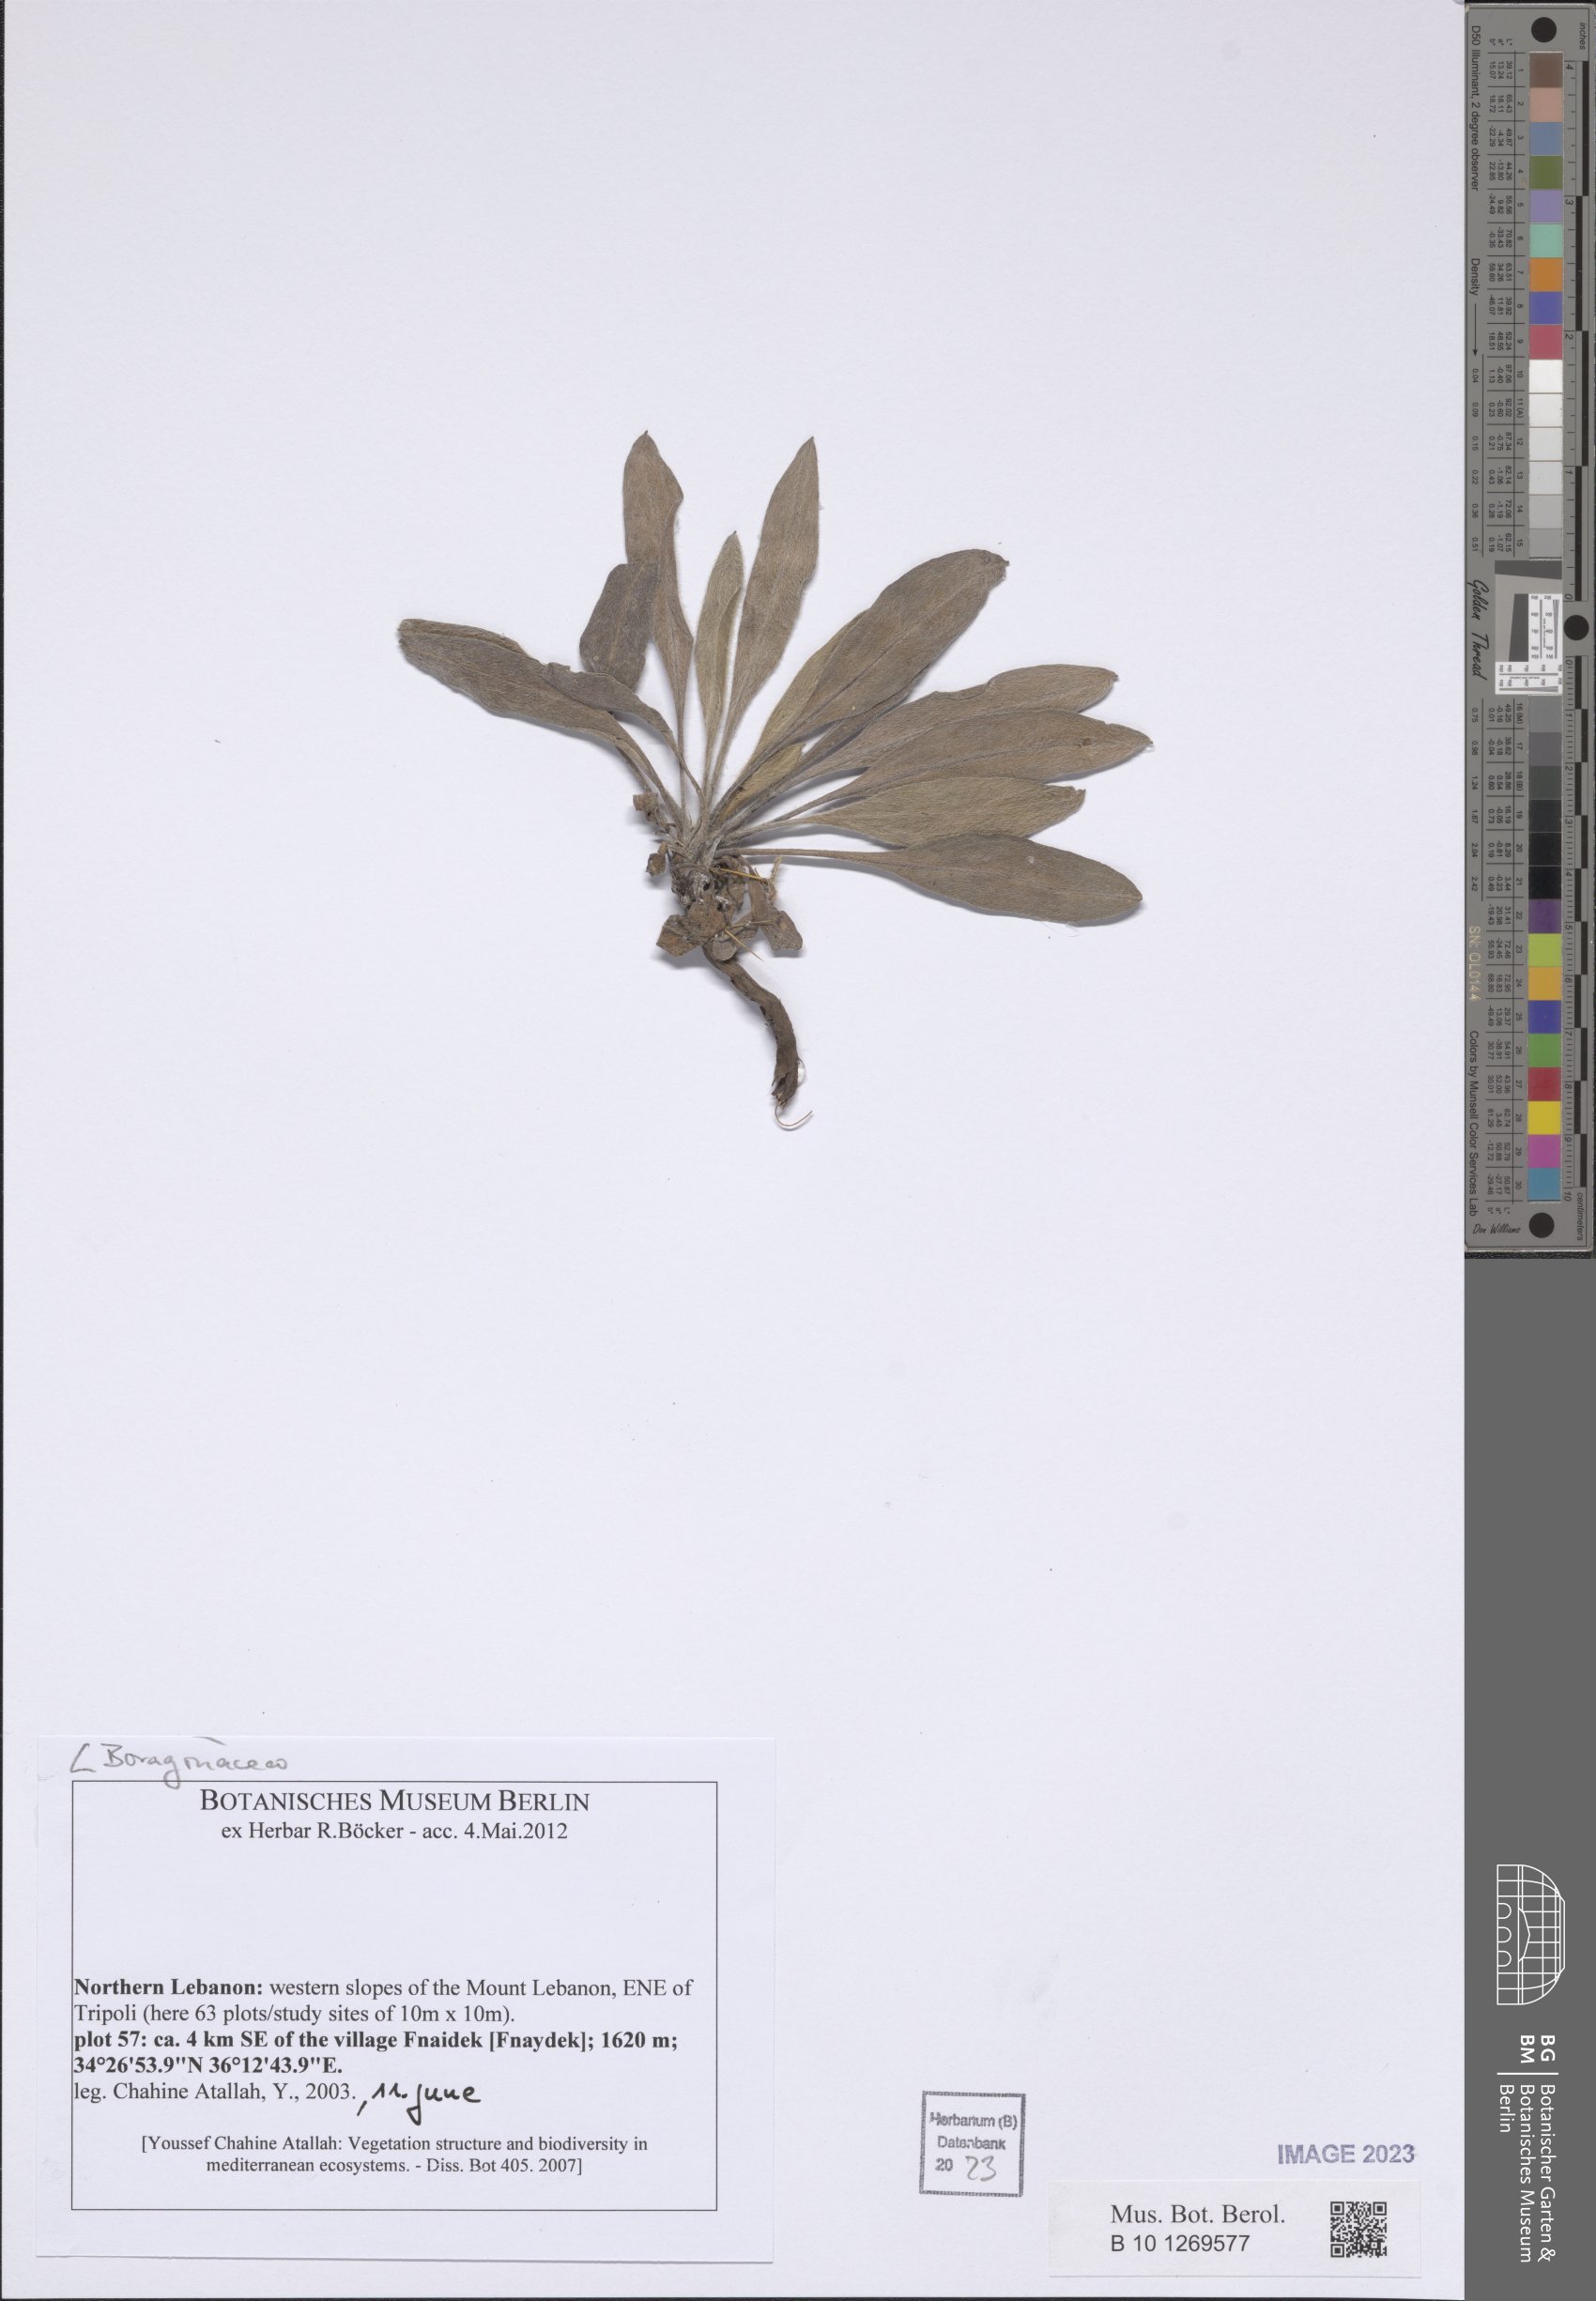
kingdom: Plantae
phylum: Tracheophyta
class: Magnoliopsida
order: Boraginales
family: Boraginaceae
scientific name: Boraginaceae
